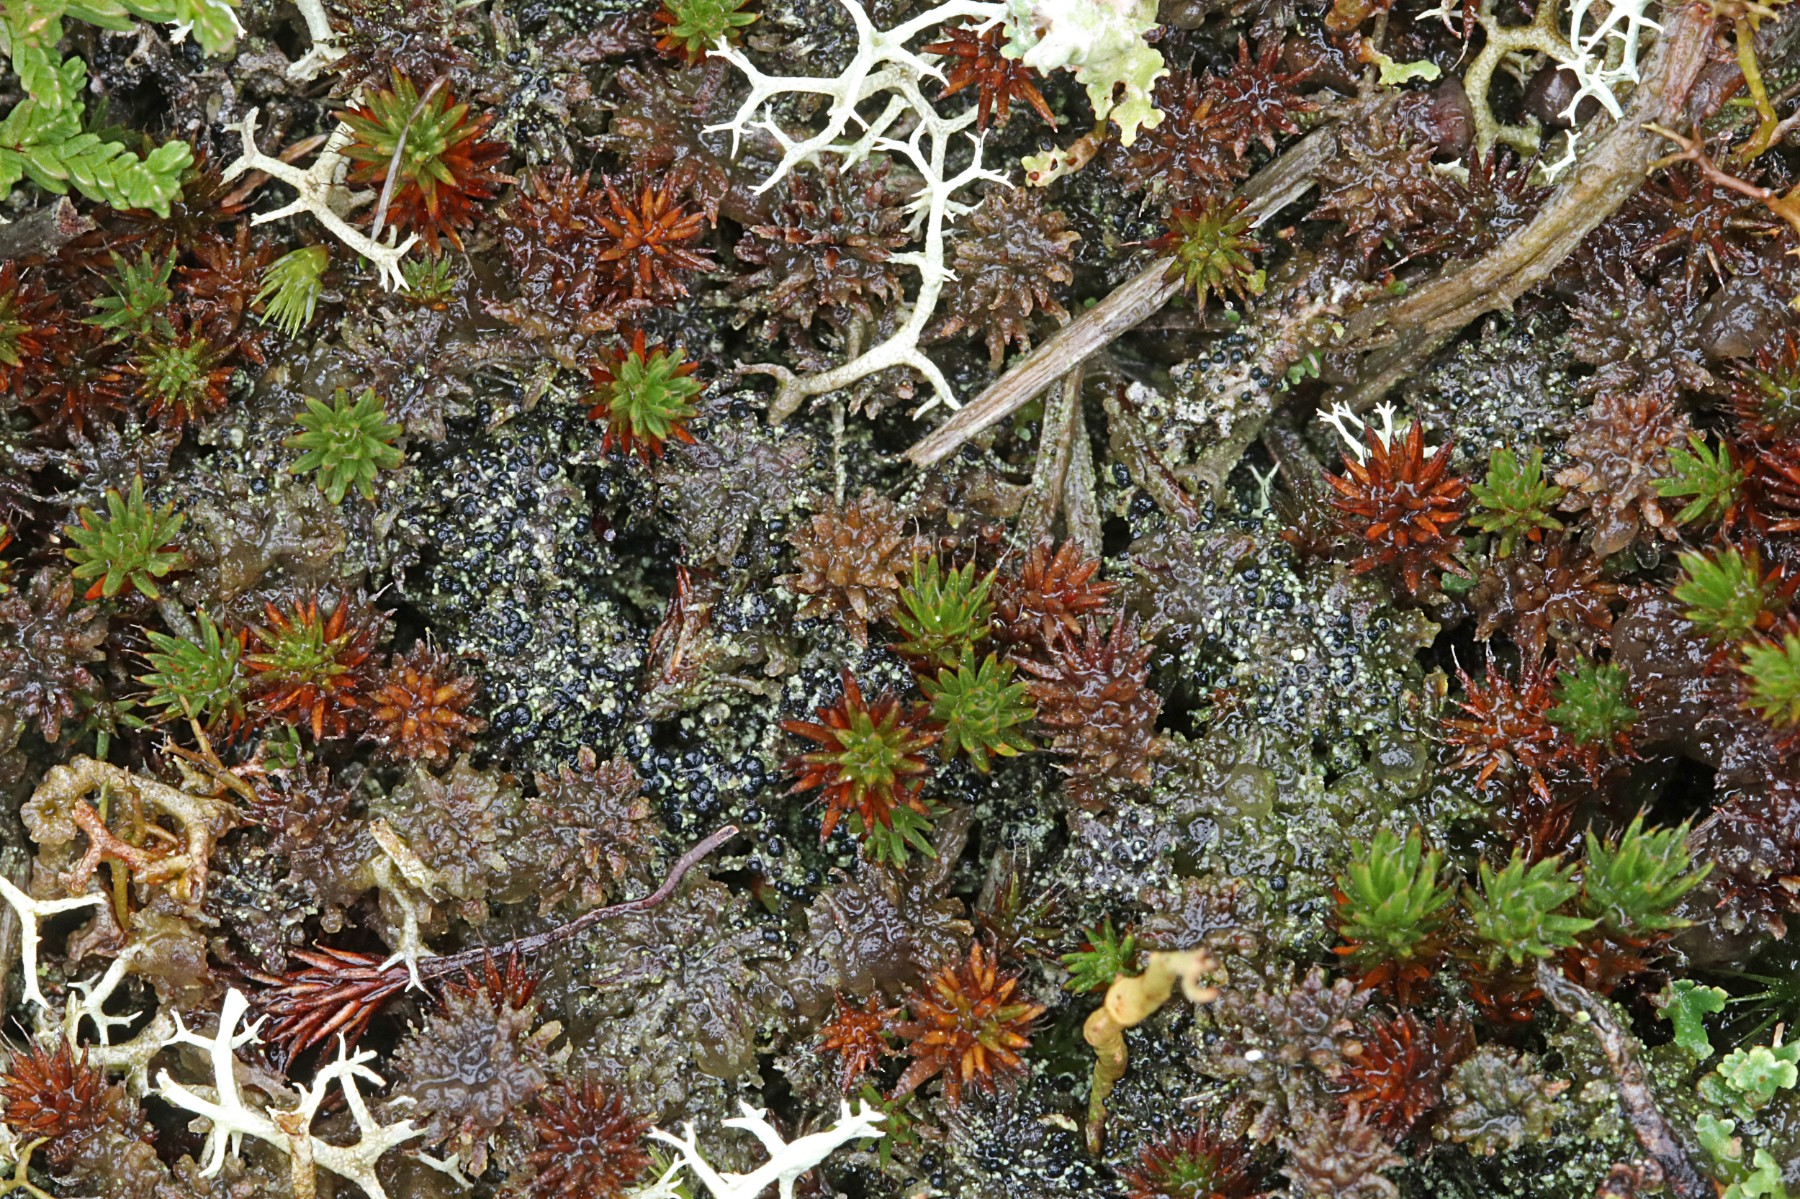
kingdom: Fungi
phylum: Ascomycota
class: Lecanoromycetes
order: Lecanorales
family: Byssolomataceae
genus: Micarea
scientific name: Micarea lignaria
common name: tørve-knaplav
